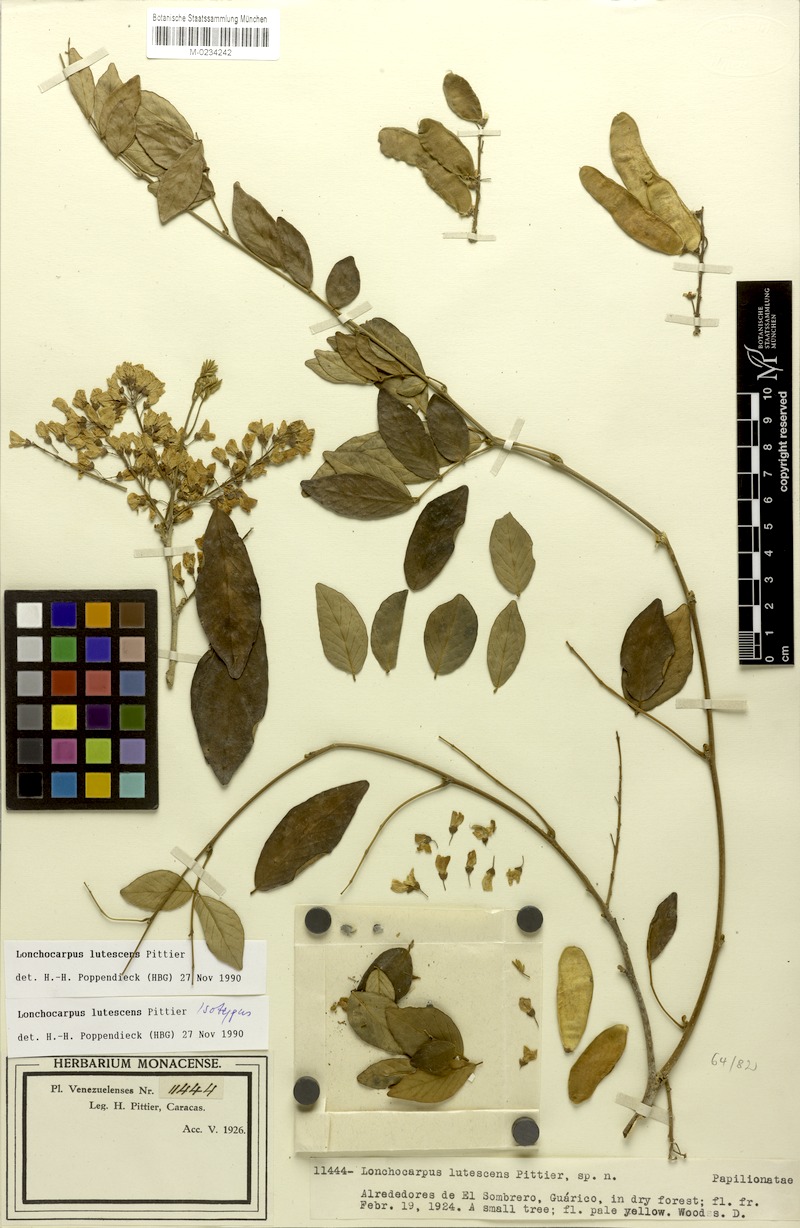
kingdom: Plantae
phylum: Tracheophyta
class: Magnoliopsida
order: Fabales
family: Fabaceae
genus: Muellera
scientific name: Muellera lutescens
